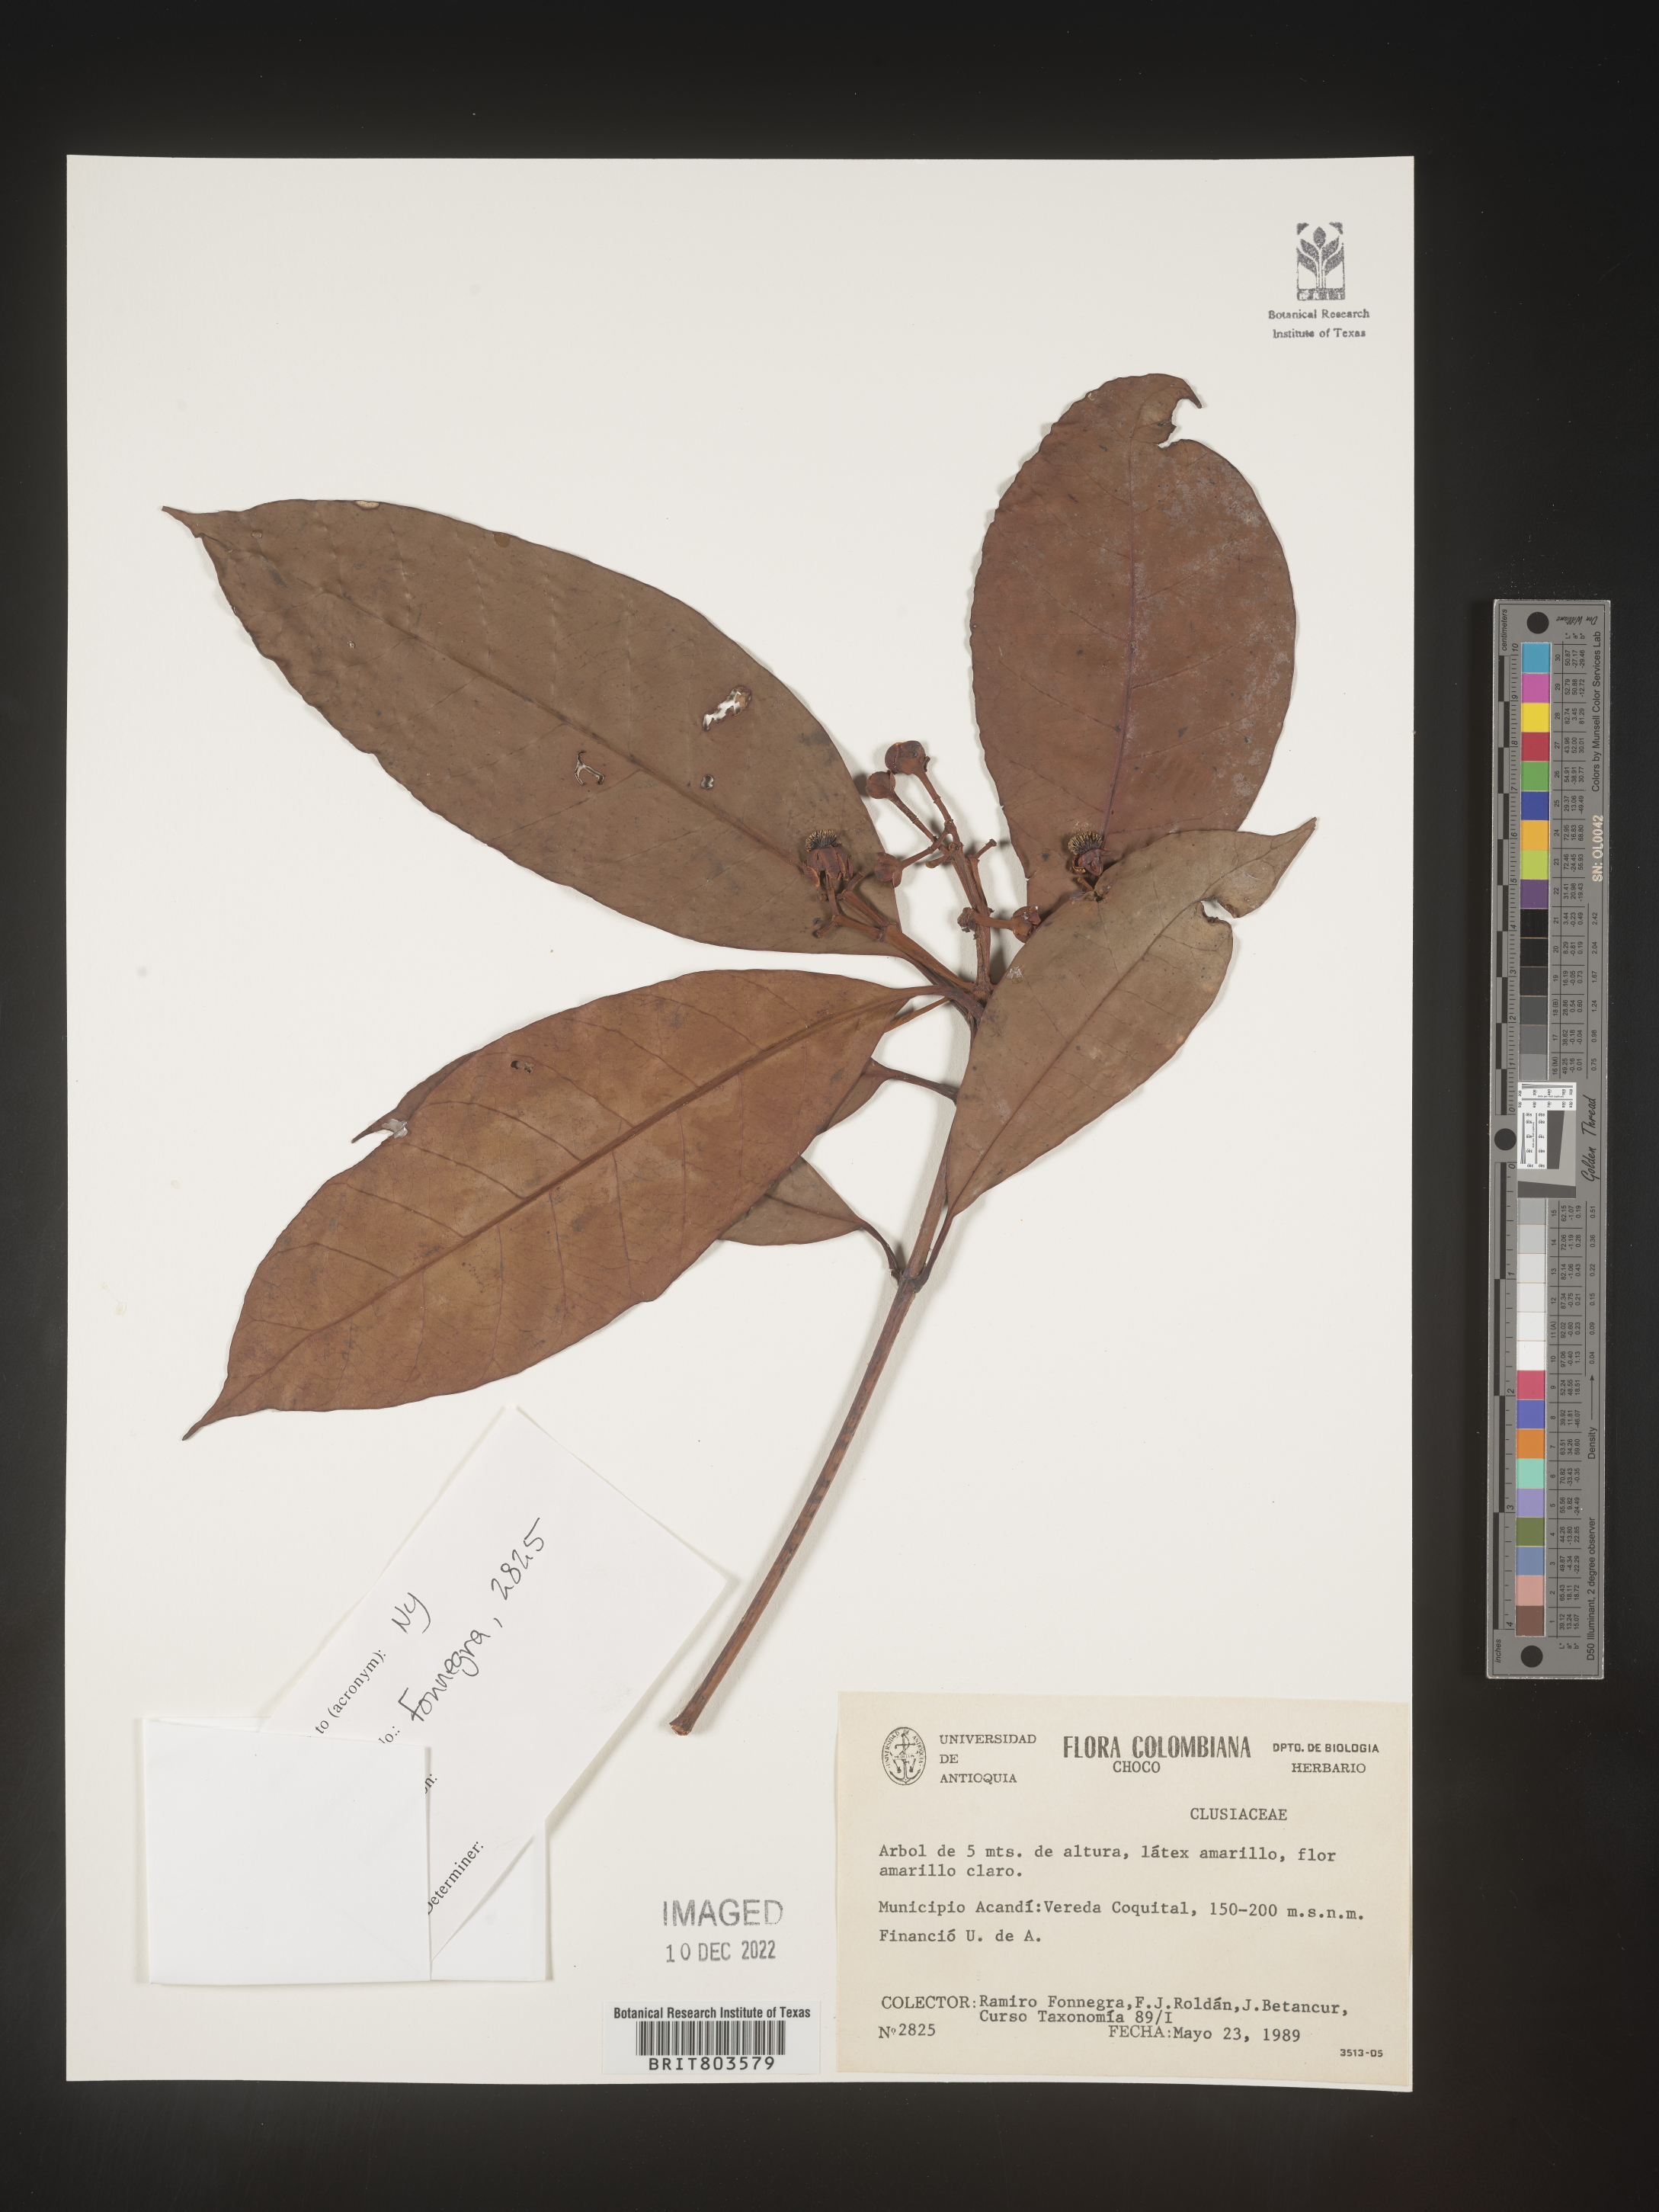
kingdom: Plantae
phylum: Tracheophyta
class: Magnoliopsida
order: Malpighiales
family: Clusiaceae
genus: Tovomita
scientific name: Tovomita
